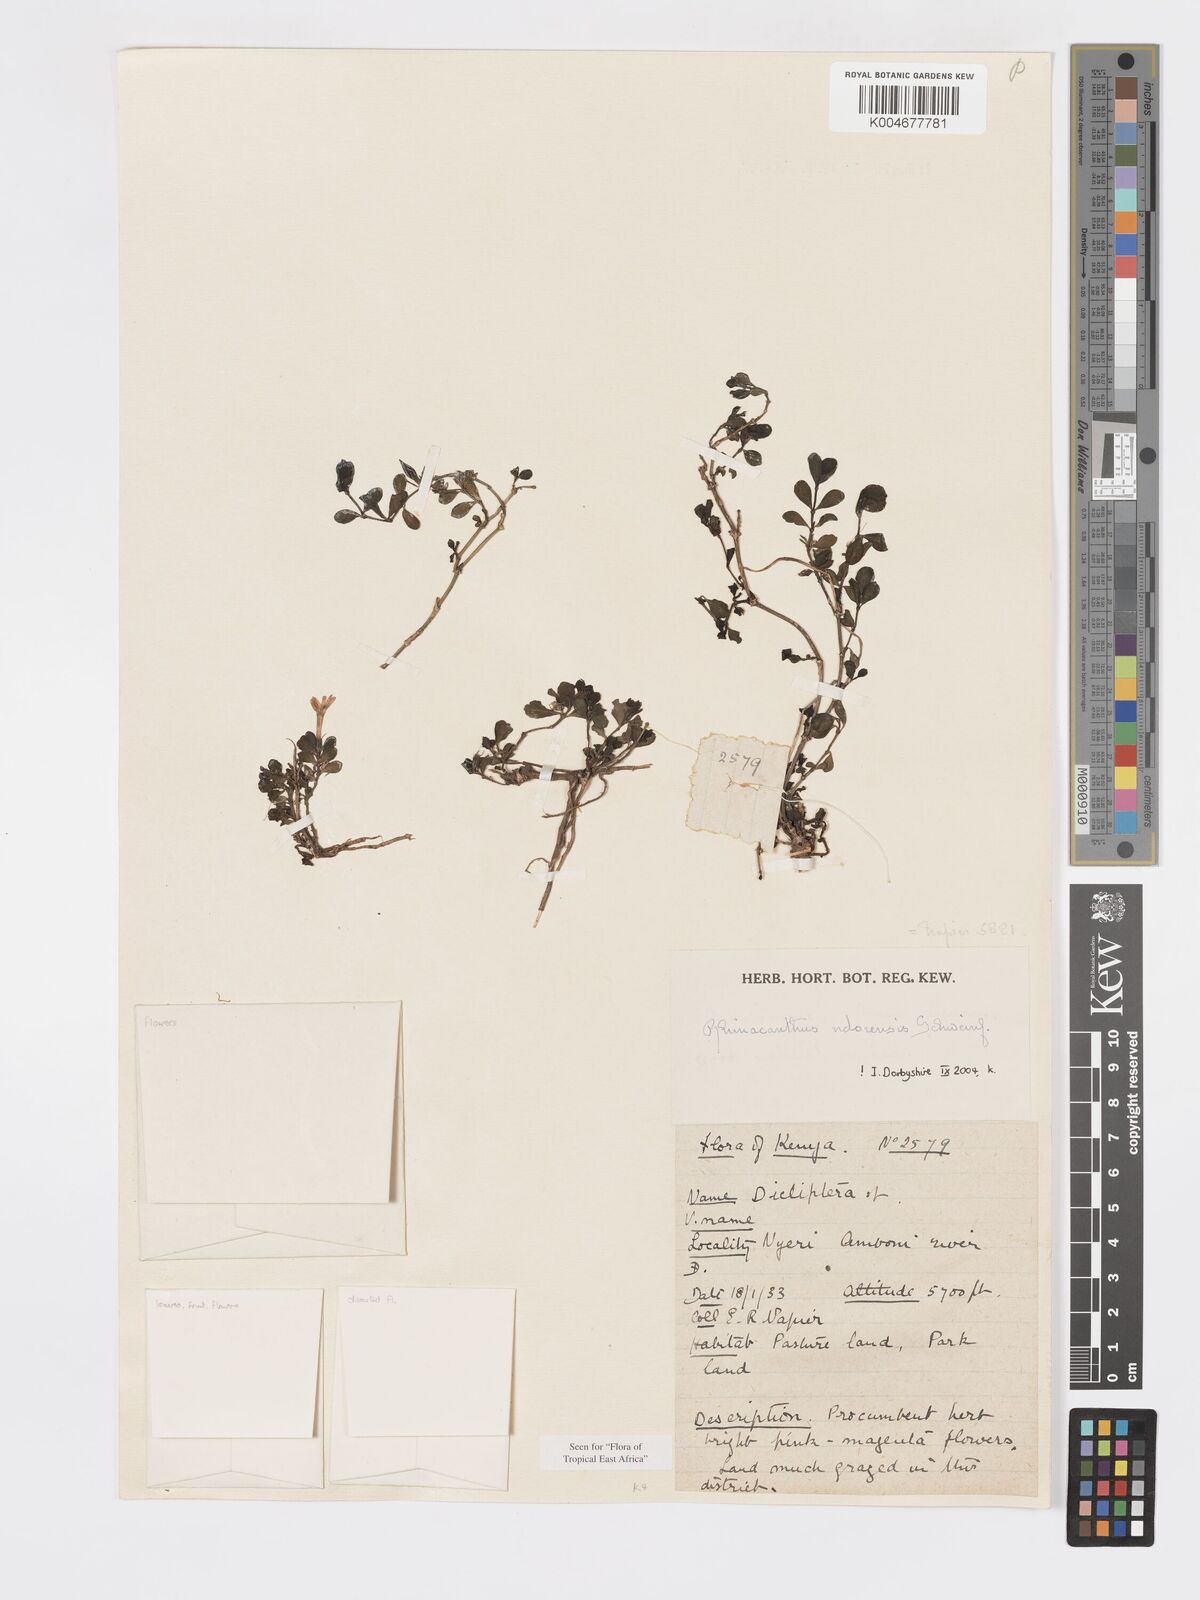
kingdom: Plantae
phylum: Tracheophyta
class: Magnoliopsida
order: Lamiales
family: Acanthaceae
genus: Kenyacanthus
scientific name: Kenyacanthus ndorensis
